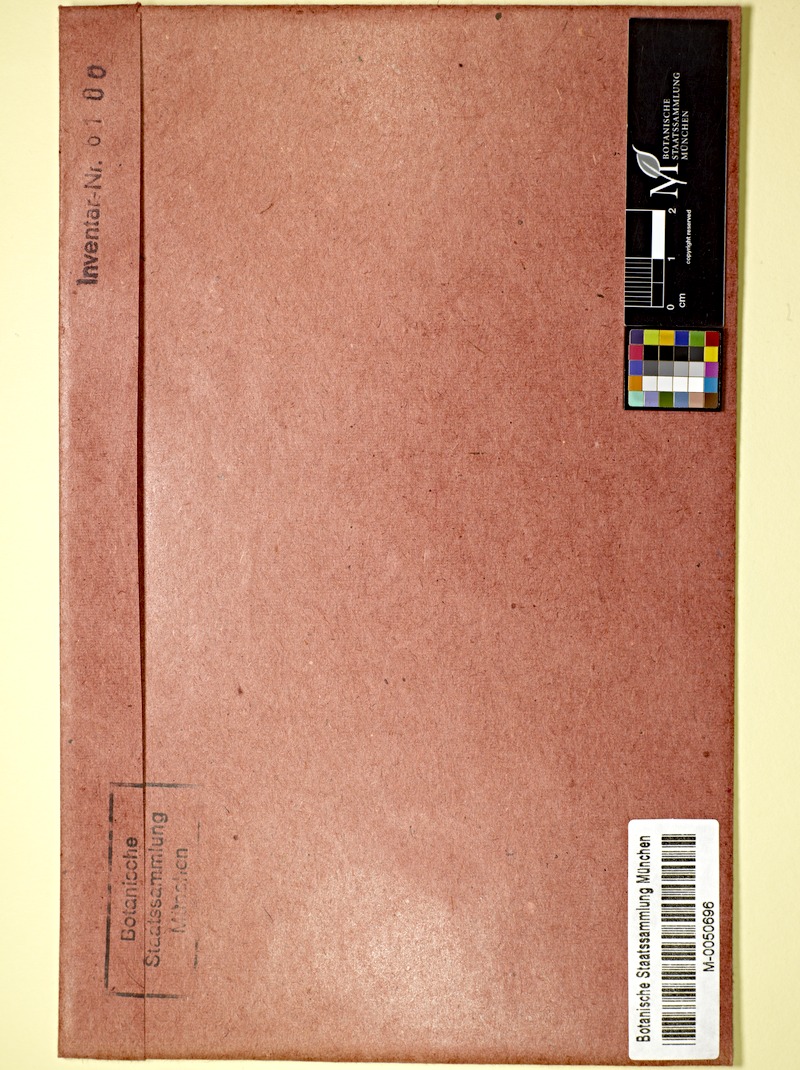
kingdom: Fungi
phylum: Basidiomycota
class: Agaricomycetes
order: Agaricales
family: Amanitaceae
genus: Amanita
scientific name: Amanita
